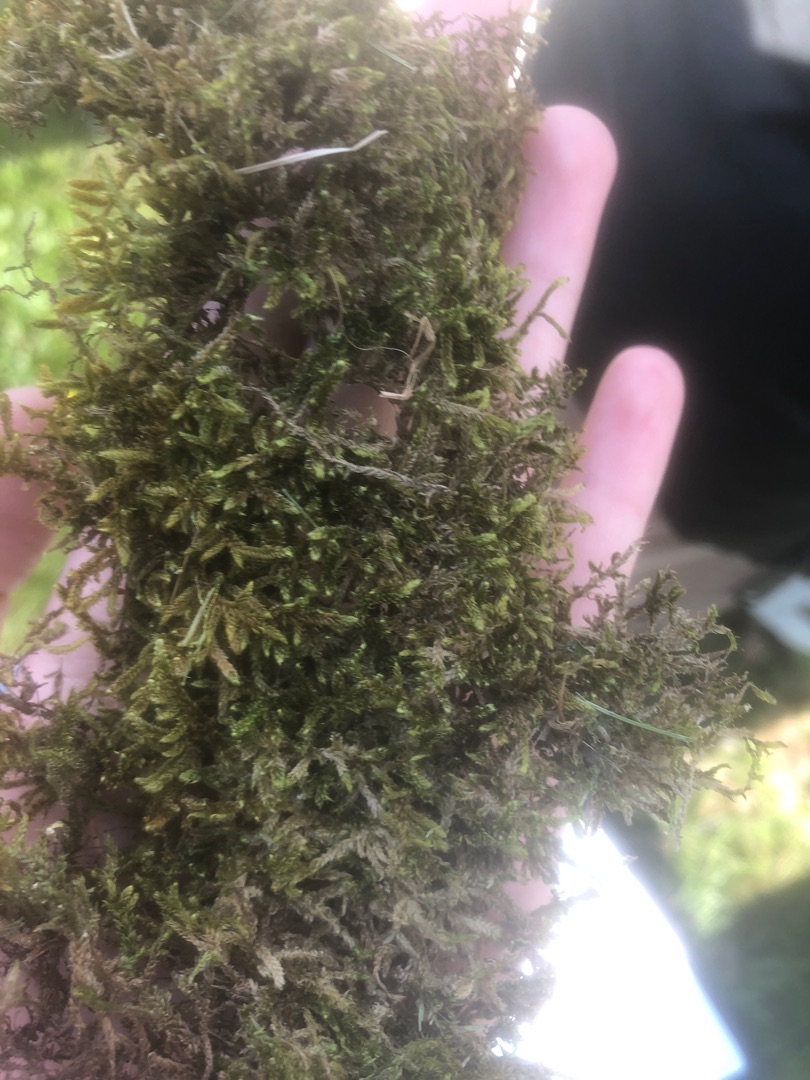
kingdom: Plantae
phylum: Bryophyta
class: Bryopsida
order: Hypnales
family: Hypnaceae
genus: Hypnum
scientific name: Hypnum cupressiforme
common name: Almindelig cypresmos
